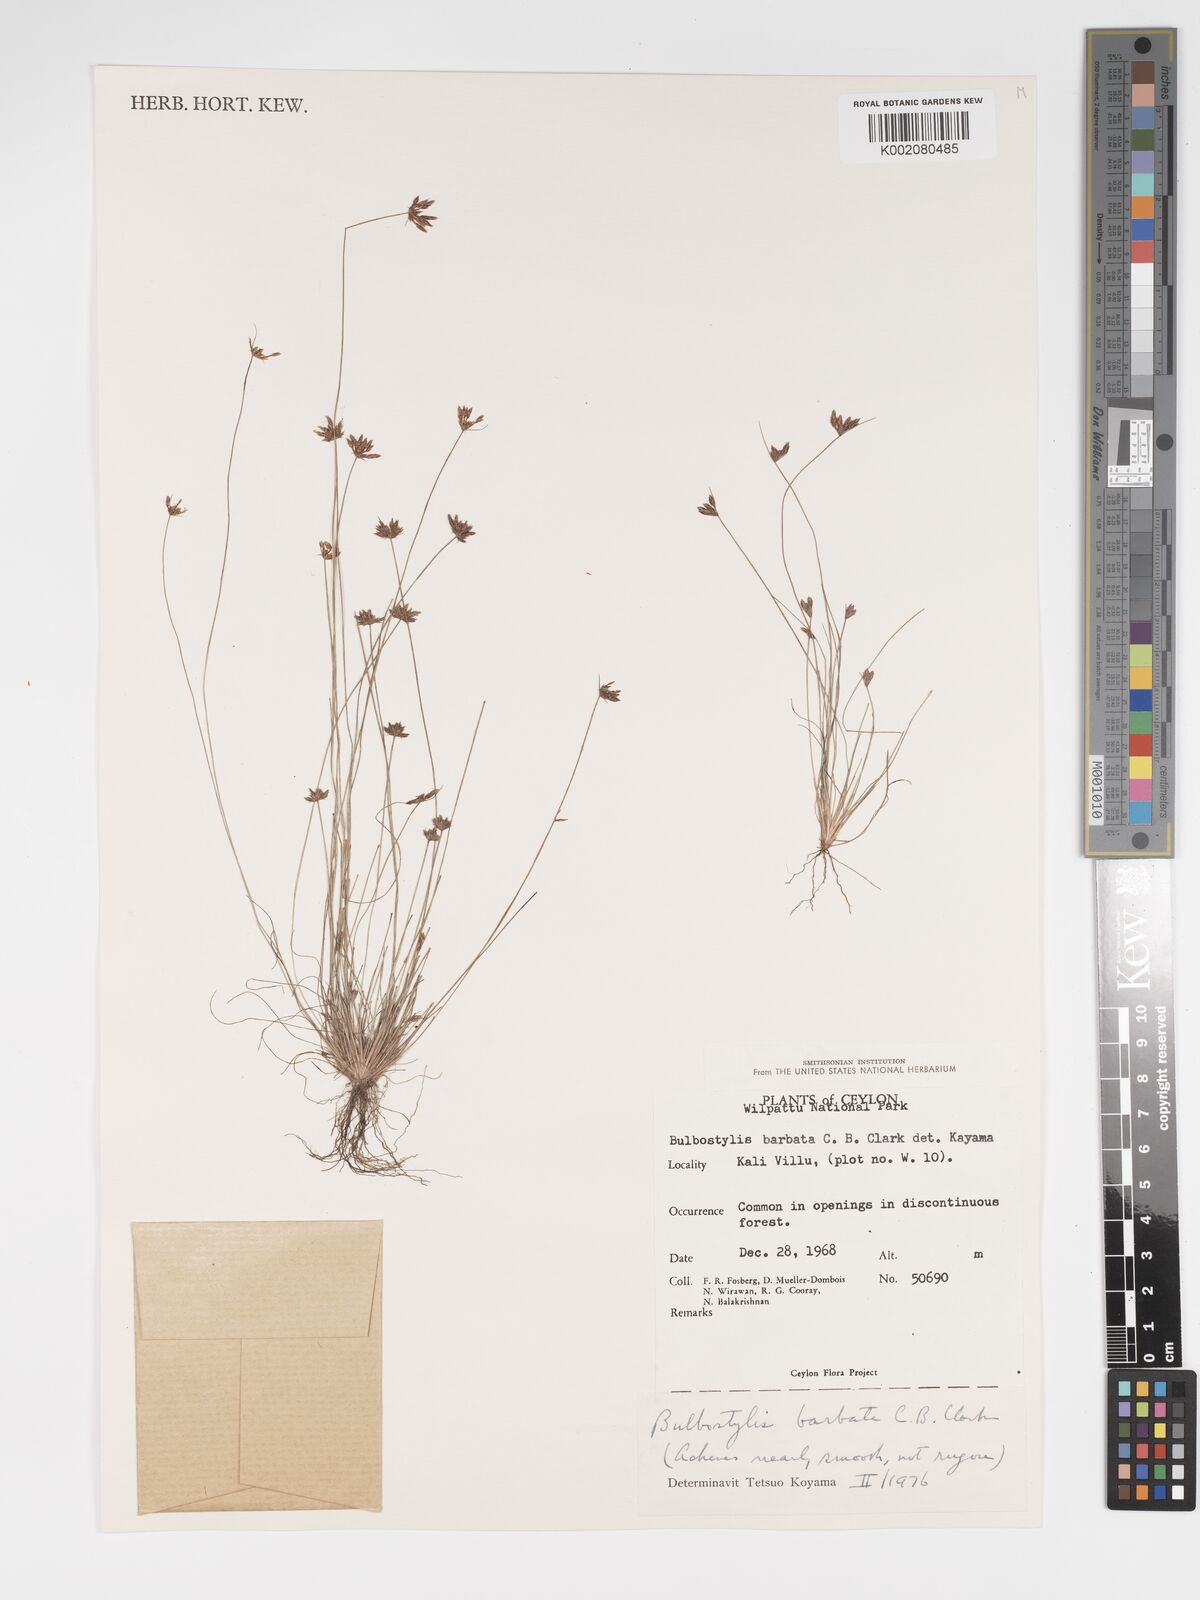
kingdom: Plantae
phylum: Tracheophyta
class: Liliopsida
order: Poales
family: Cyperaceae
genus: Bulbostylis
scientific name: Bulbostylis barbata
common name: Watergrass
